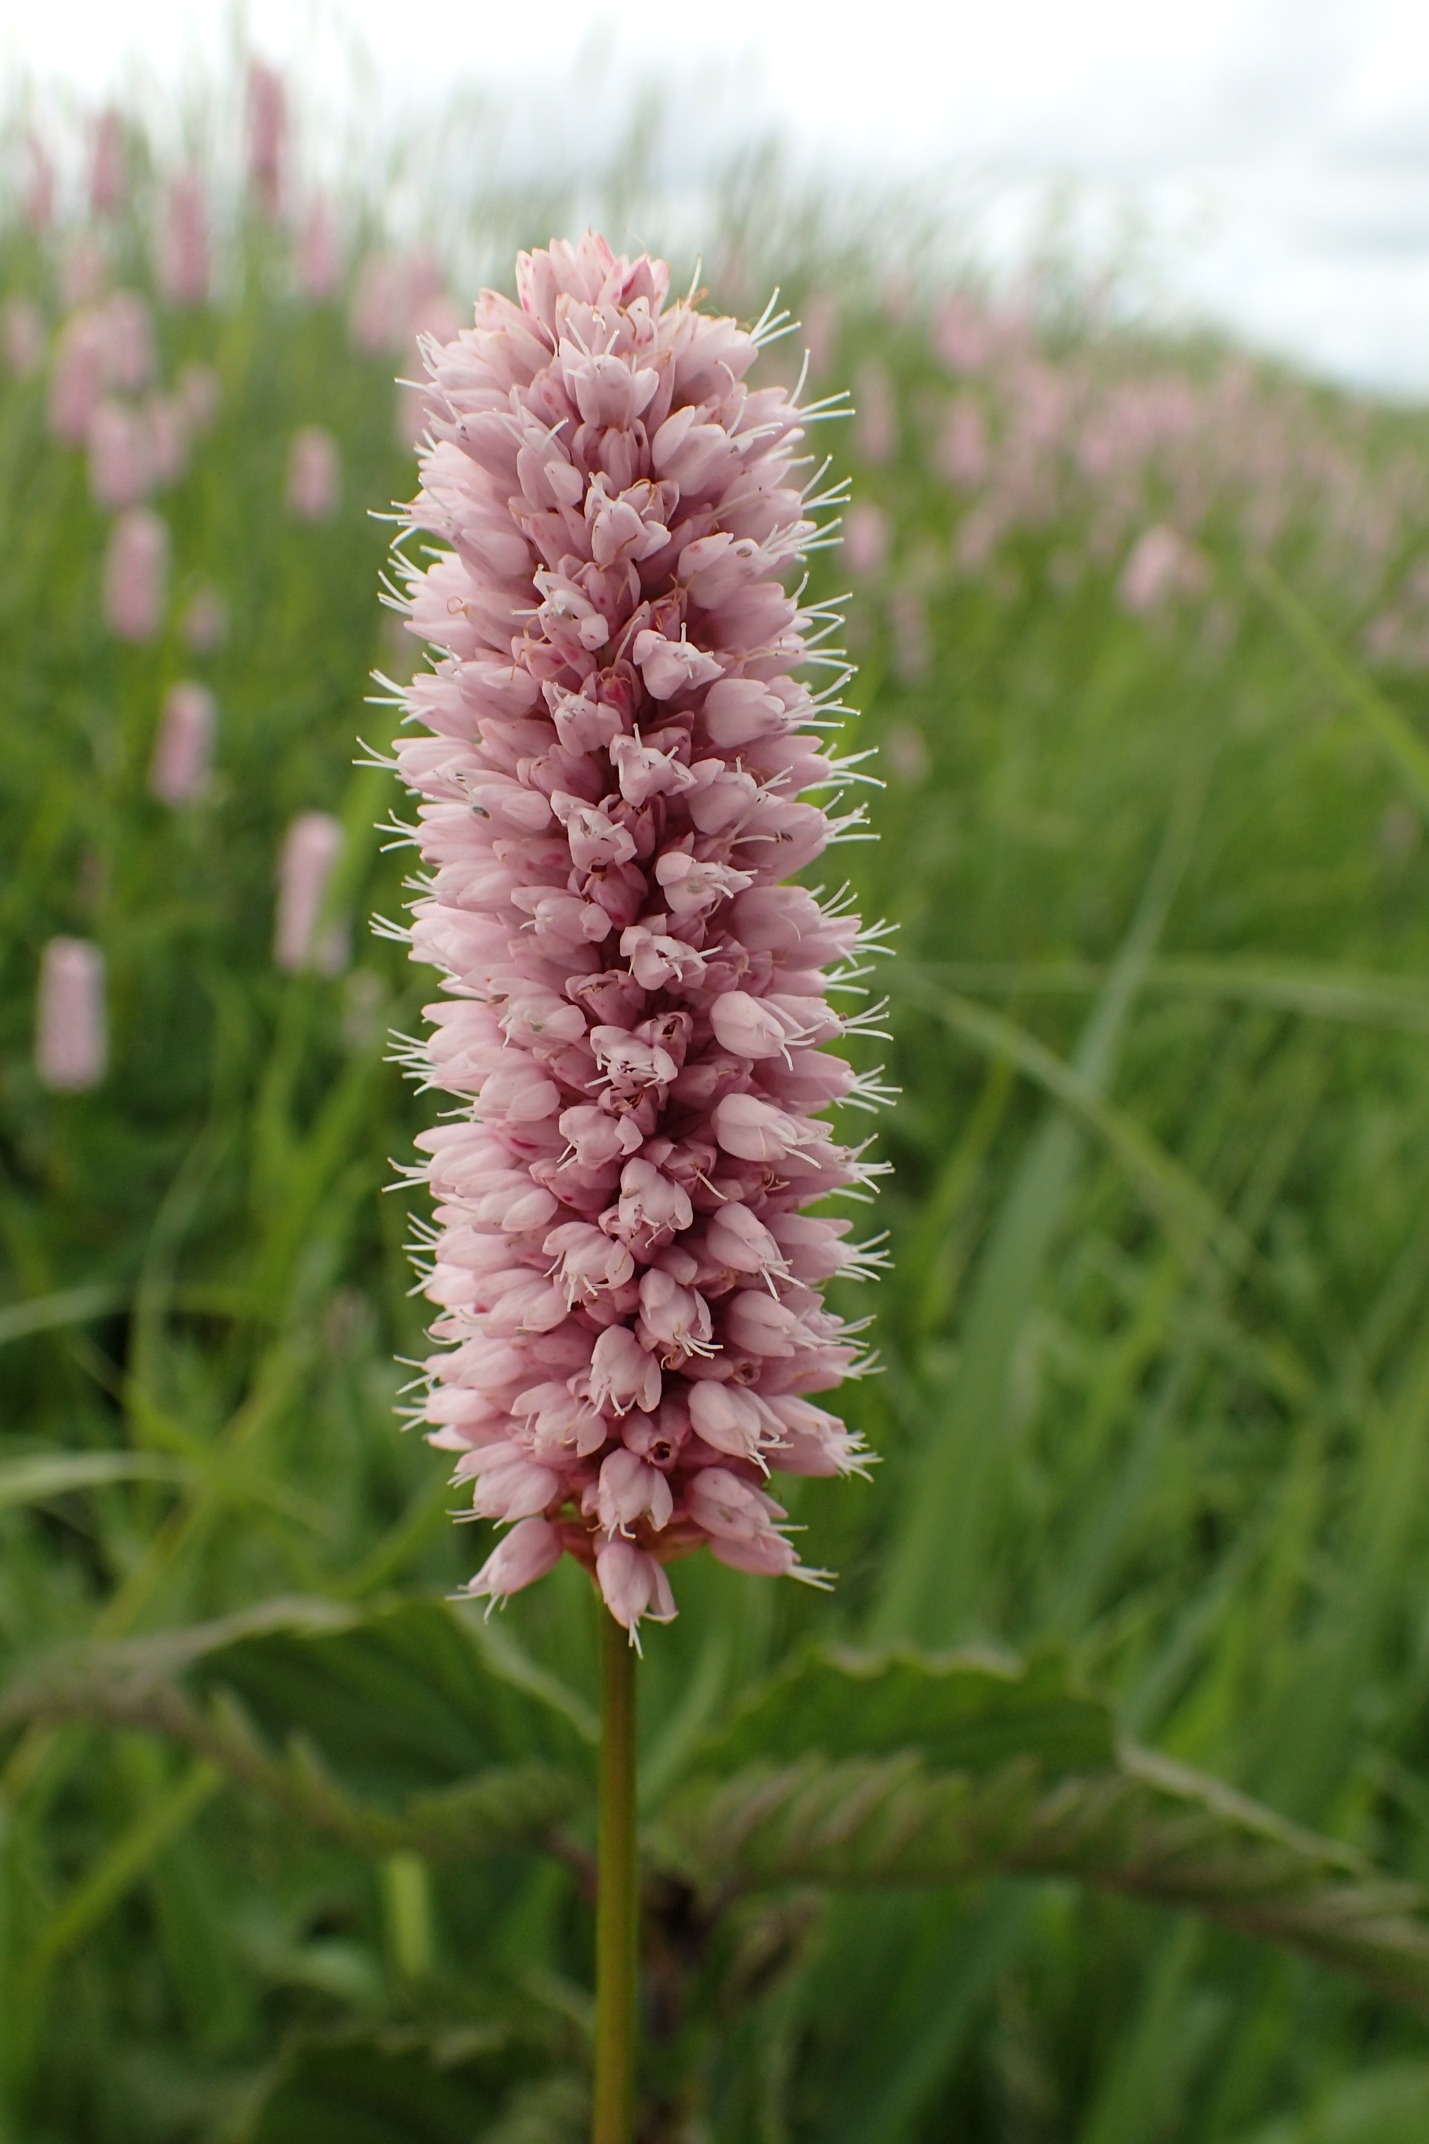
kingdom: Plantae
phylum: Tracheophyta
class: Magnoliopsida
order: Caryophyllales
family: Polygonaceae
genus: Bistorta
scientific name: Bistorta officinalis
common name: Slangeurt
